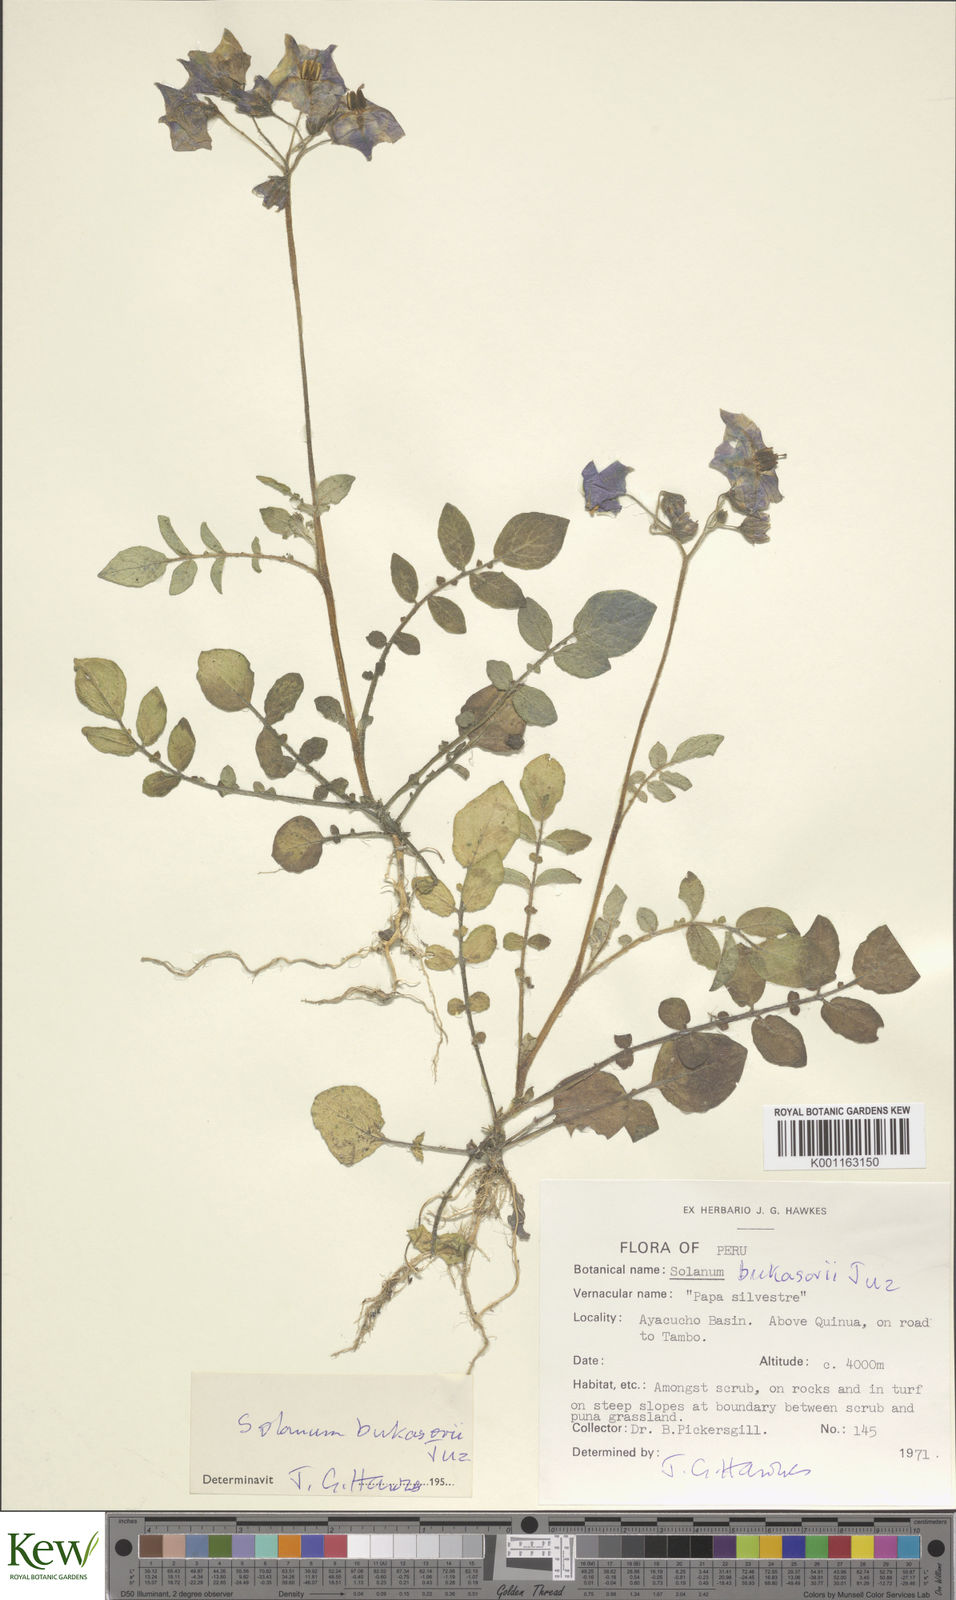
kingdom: Plantae
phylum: Tracheophyta
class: Magnoliopsida
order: Solanales
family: Solanaceae
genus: Solanum
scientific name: Solanum candolleanum
